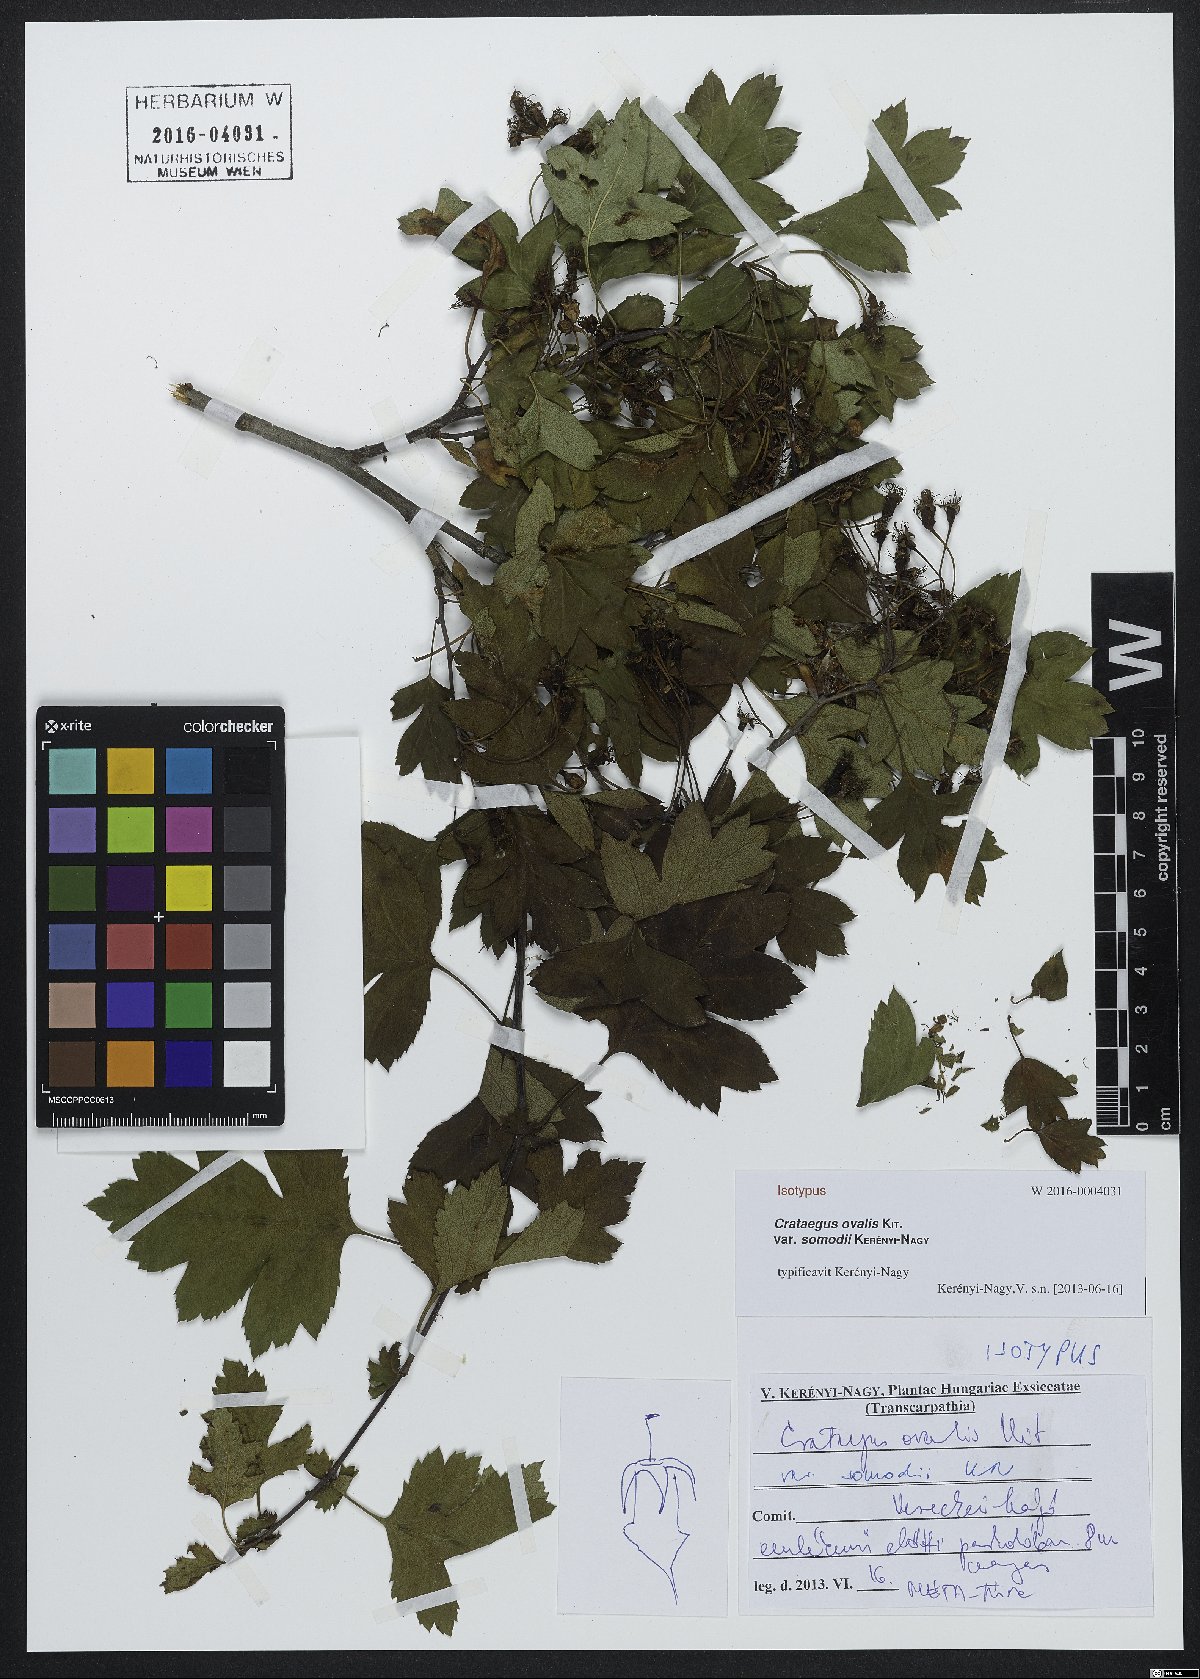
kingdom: Plantae
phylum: Tracheophyta
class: Magnoliopsida
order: Rosales
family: Rosaceae
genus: Crataegus
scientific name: Crataegus macrocarpa
